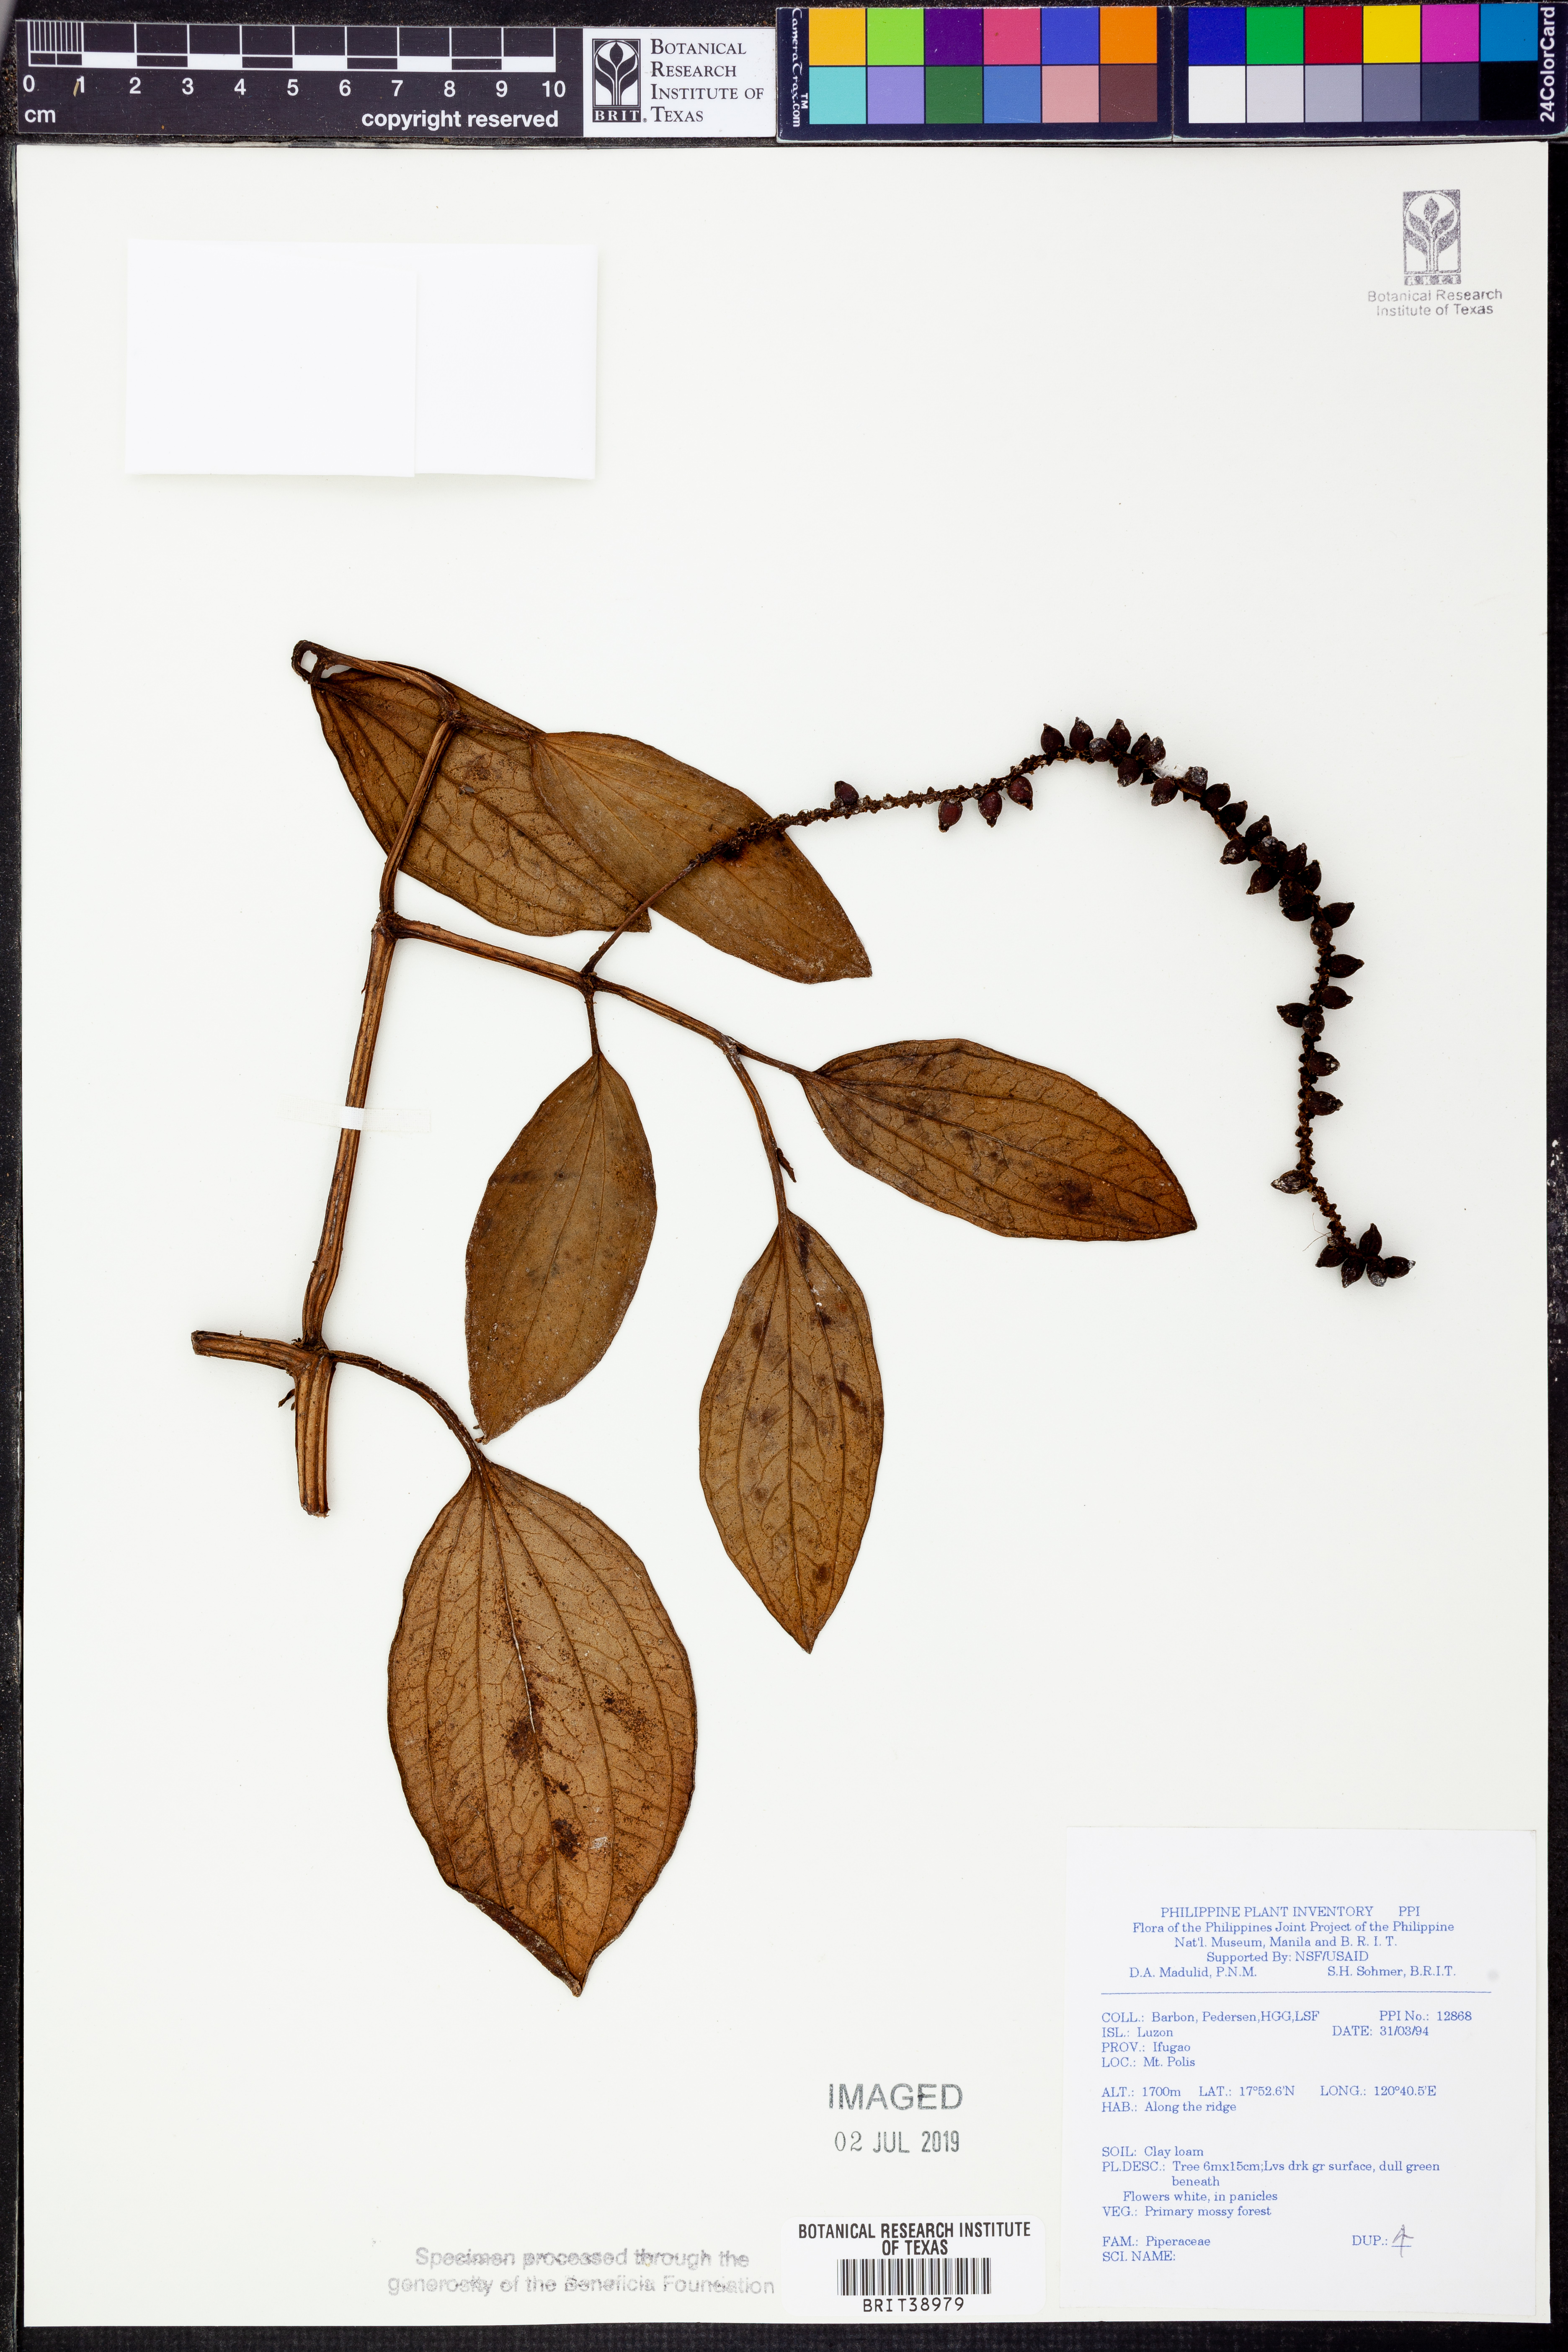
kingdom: Plantae
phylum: Tracheophyta
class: Magnoliopsida
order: Piperales
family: Piperaceae
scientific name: Piperaceae
